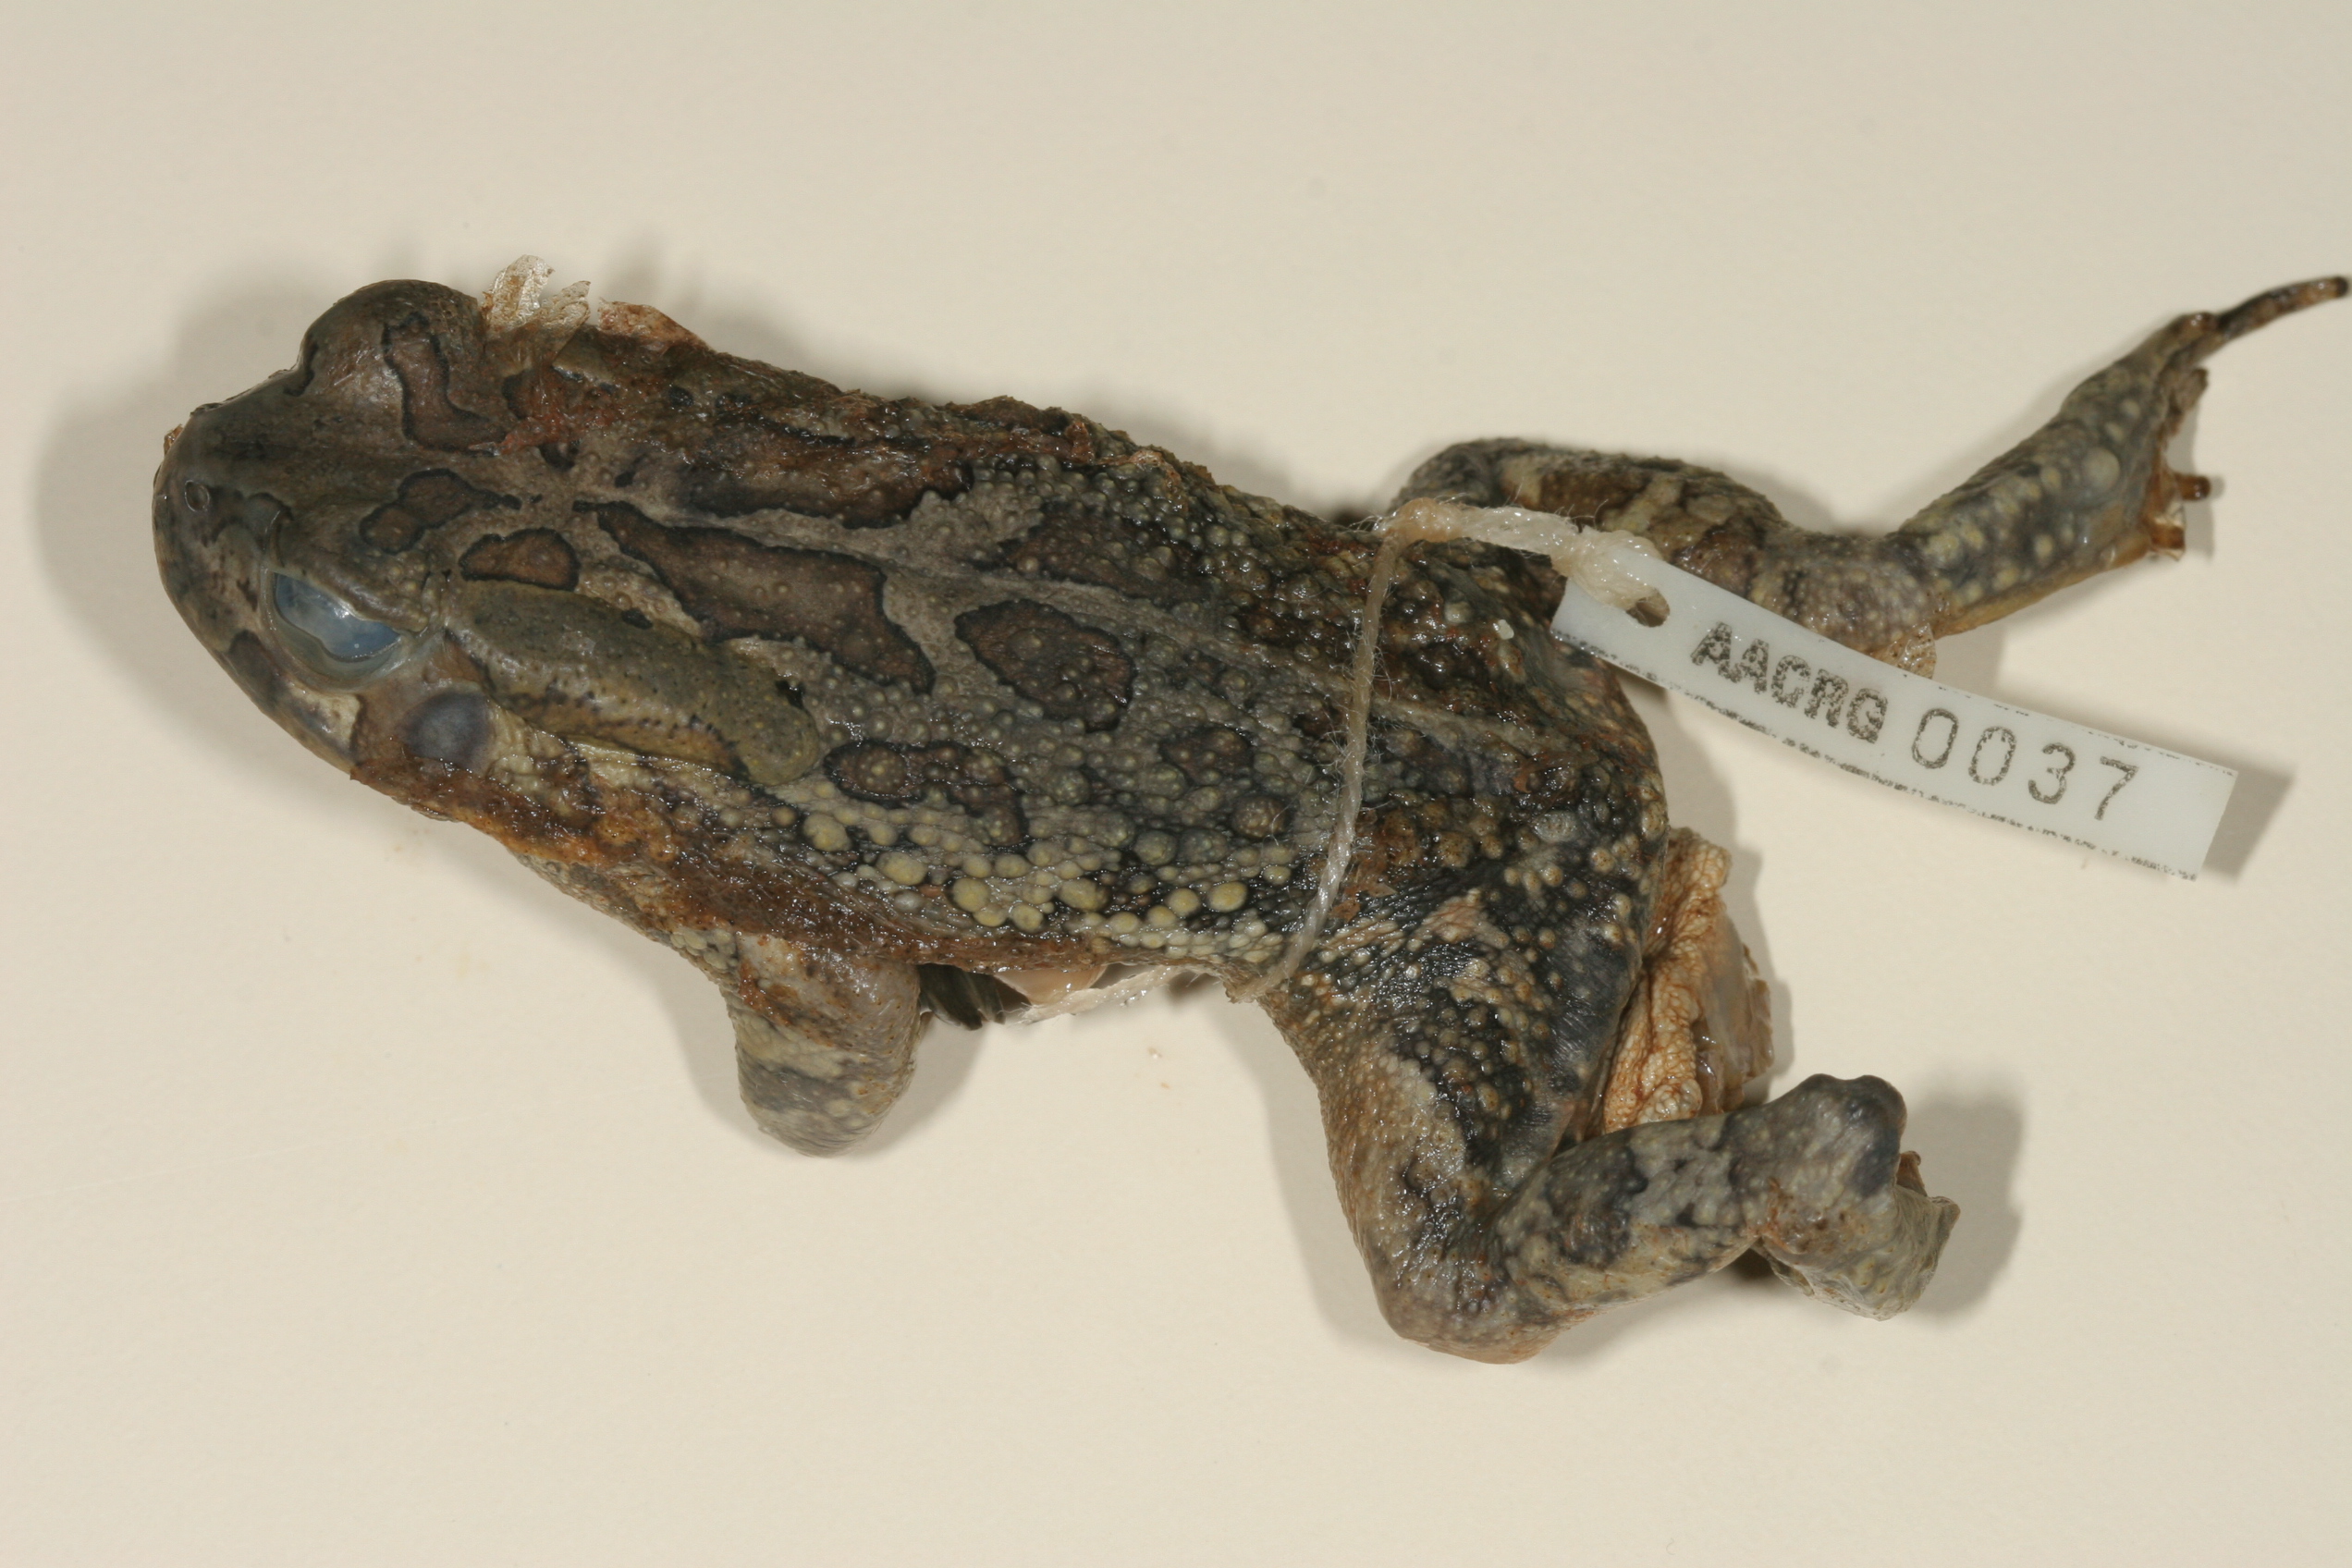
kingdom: Animalia
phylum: Chordata
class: Amphibia
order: Anura
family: Bufonidae
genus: Sclerophrys
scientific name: Sclerophrys garmani
